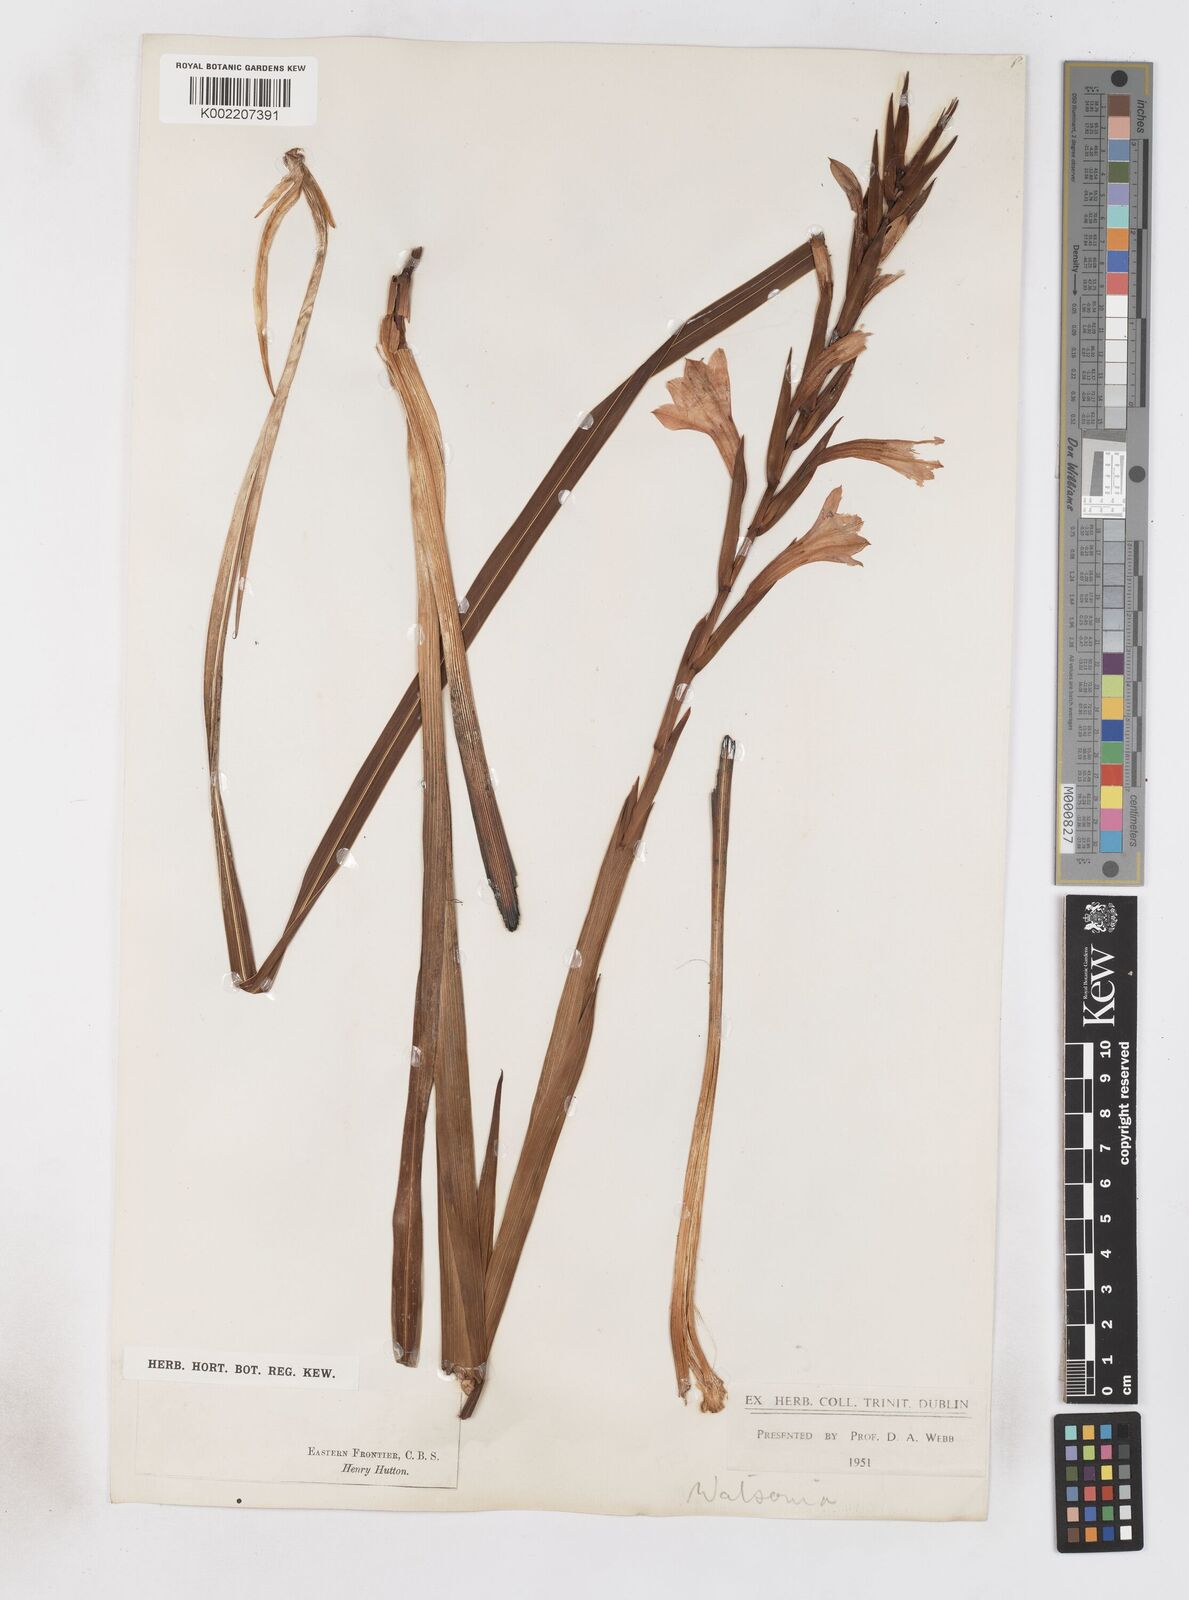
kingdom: Plantae
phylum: Tracheophyta
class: Liliopsida
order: Asparagales
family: Iridaceae
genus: Watsonia
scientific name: Watsonia pillansii
